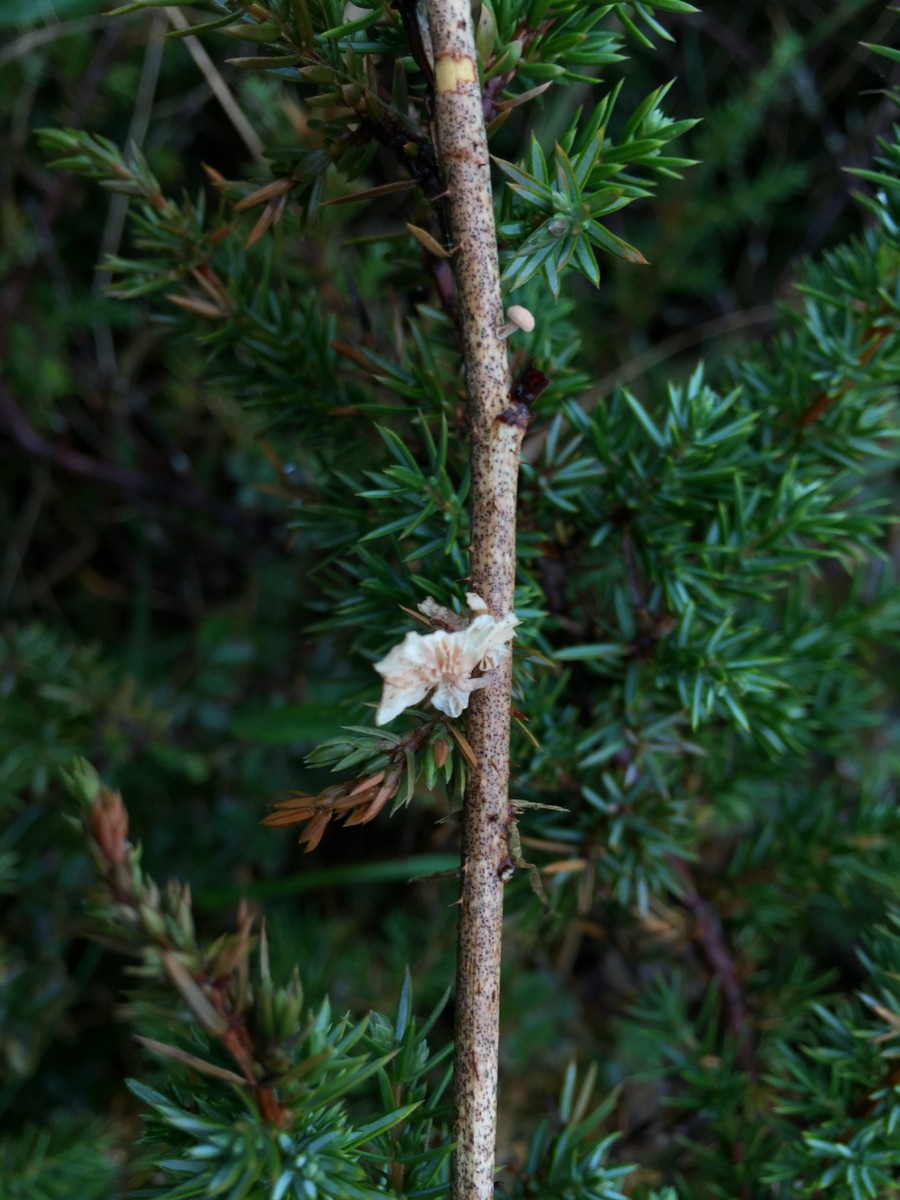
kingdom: Fungi
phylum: Basidiomycota
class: Agaricomycetes
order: Agaricales
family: Omphalotaceae
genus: Collybiopsis
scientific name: Collybiopsis ramealis
